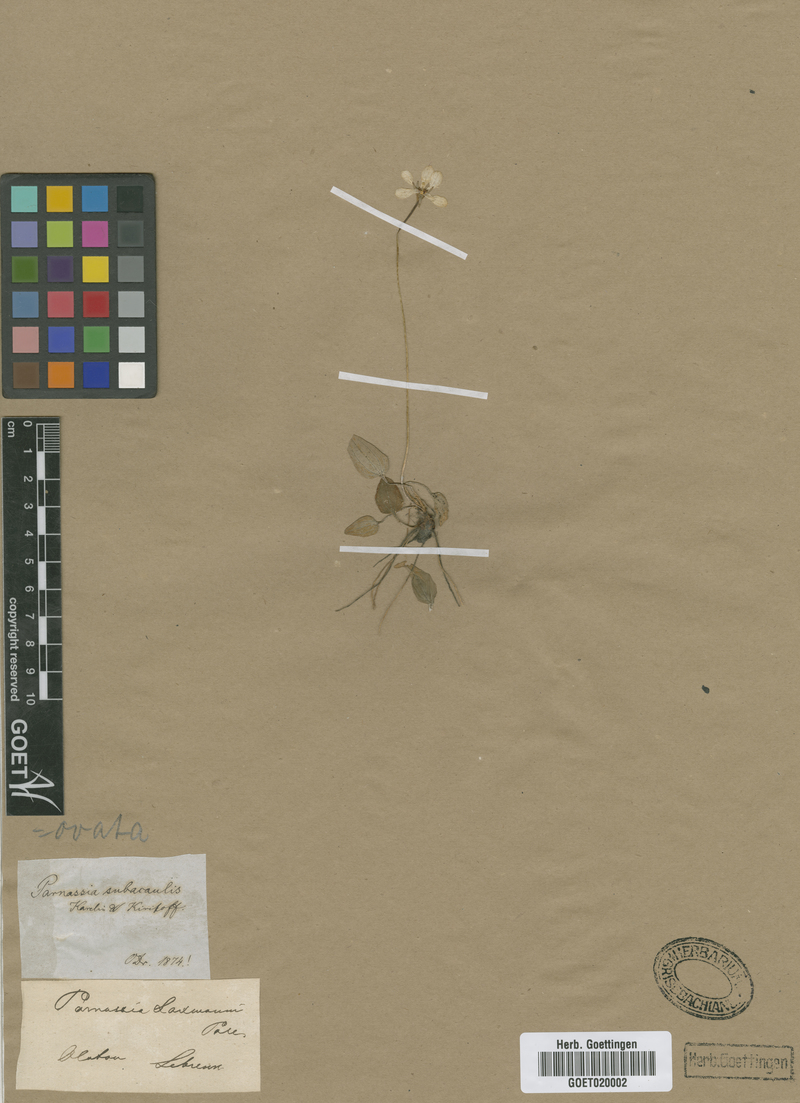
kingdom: Plantae
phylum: Tracheophyta
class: Magnoliopsida
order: Celastrales
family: Parnassiaceae
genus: Parnassia
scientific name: Parnassia caroliniana
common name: Carolina grass of parnassus
